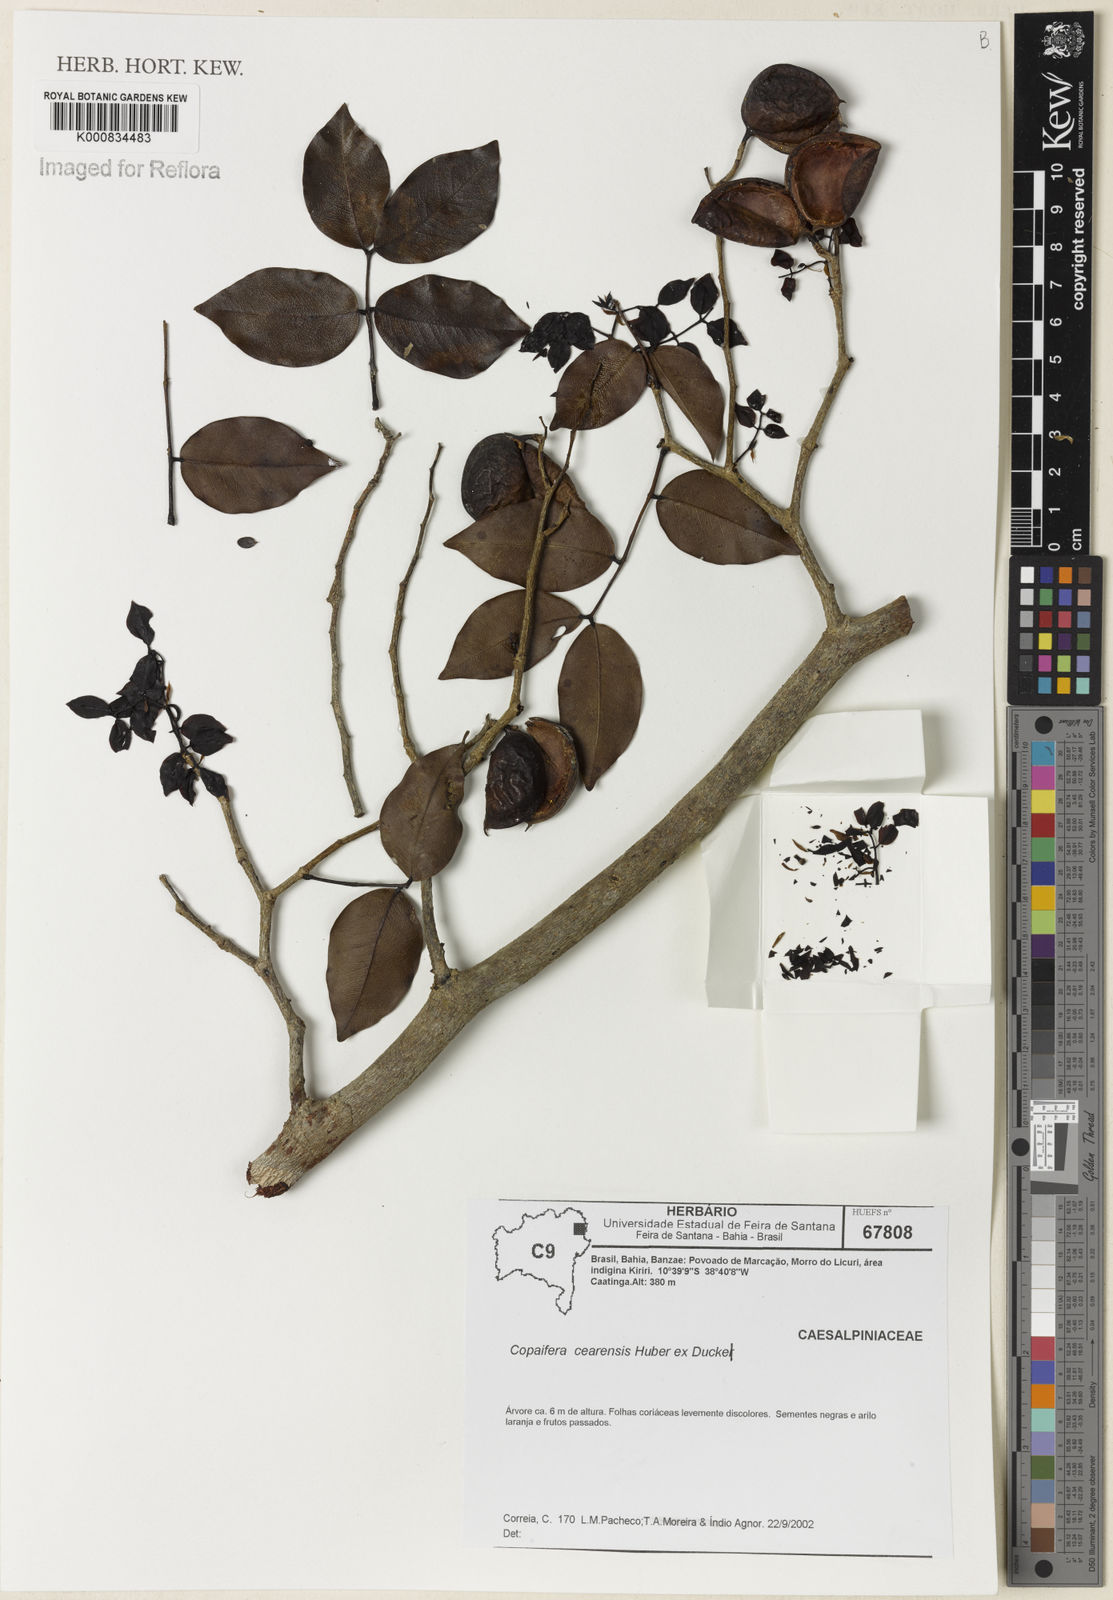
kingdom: Plantae
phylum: Tracheophyta
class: Magnoliopsida
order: Fabales
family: Fabaceae
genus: Copaifera
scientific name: Copaifera duckei
